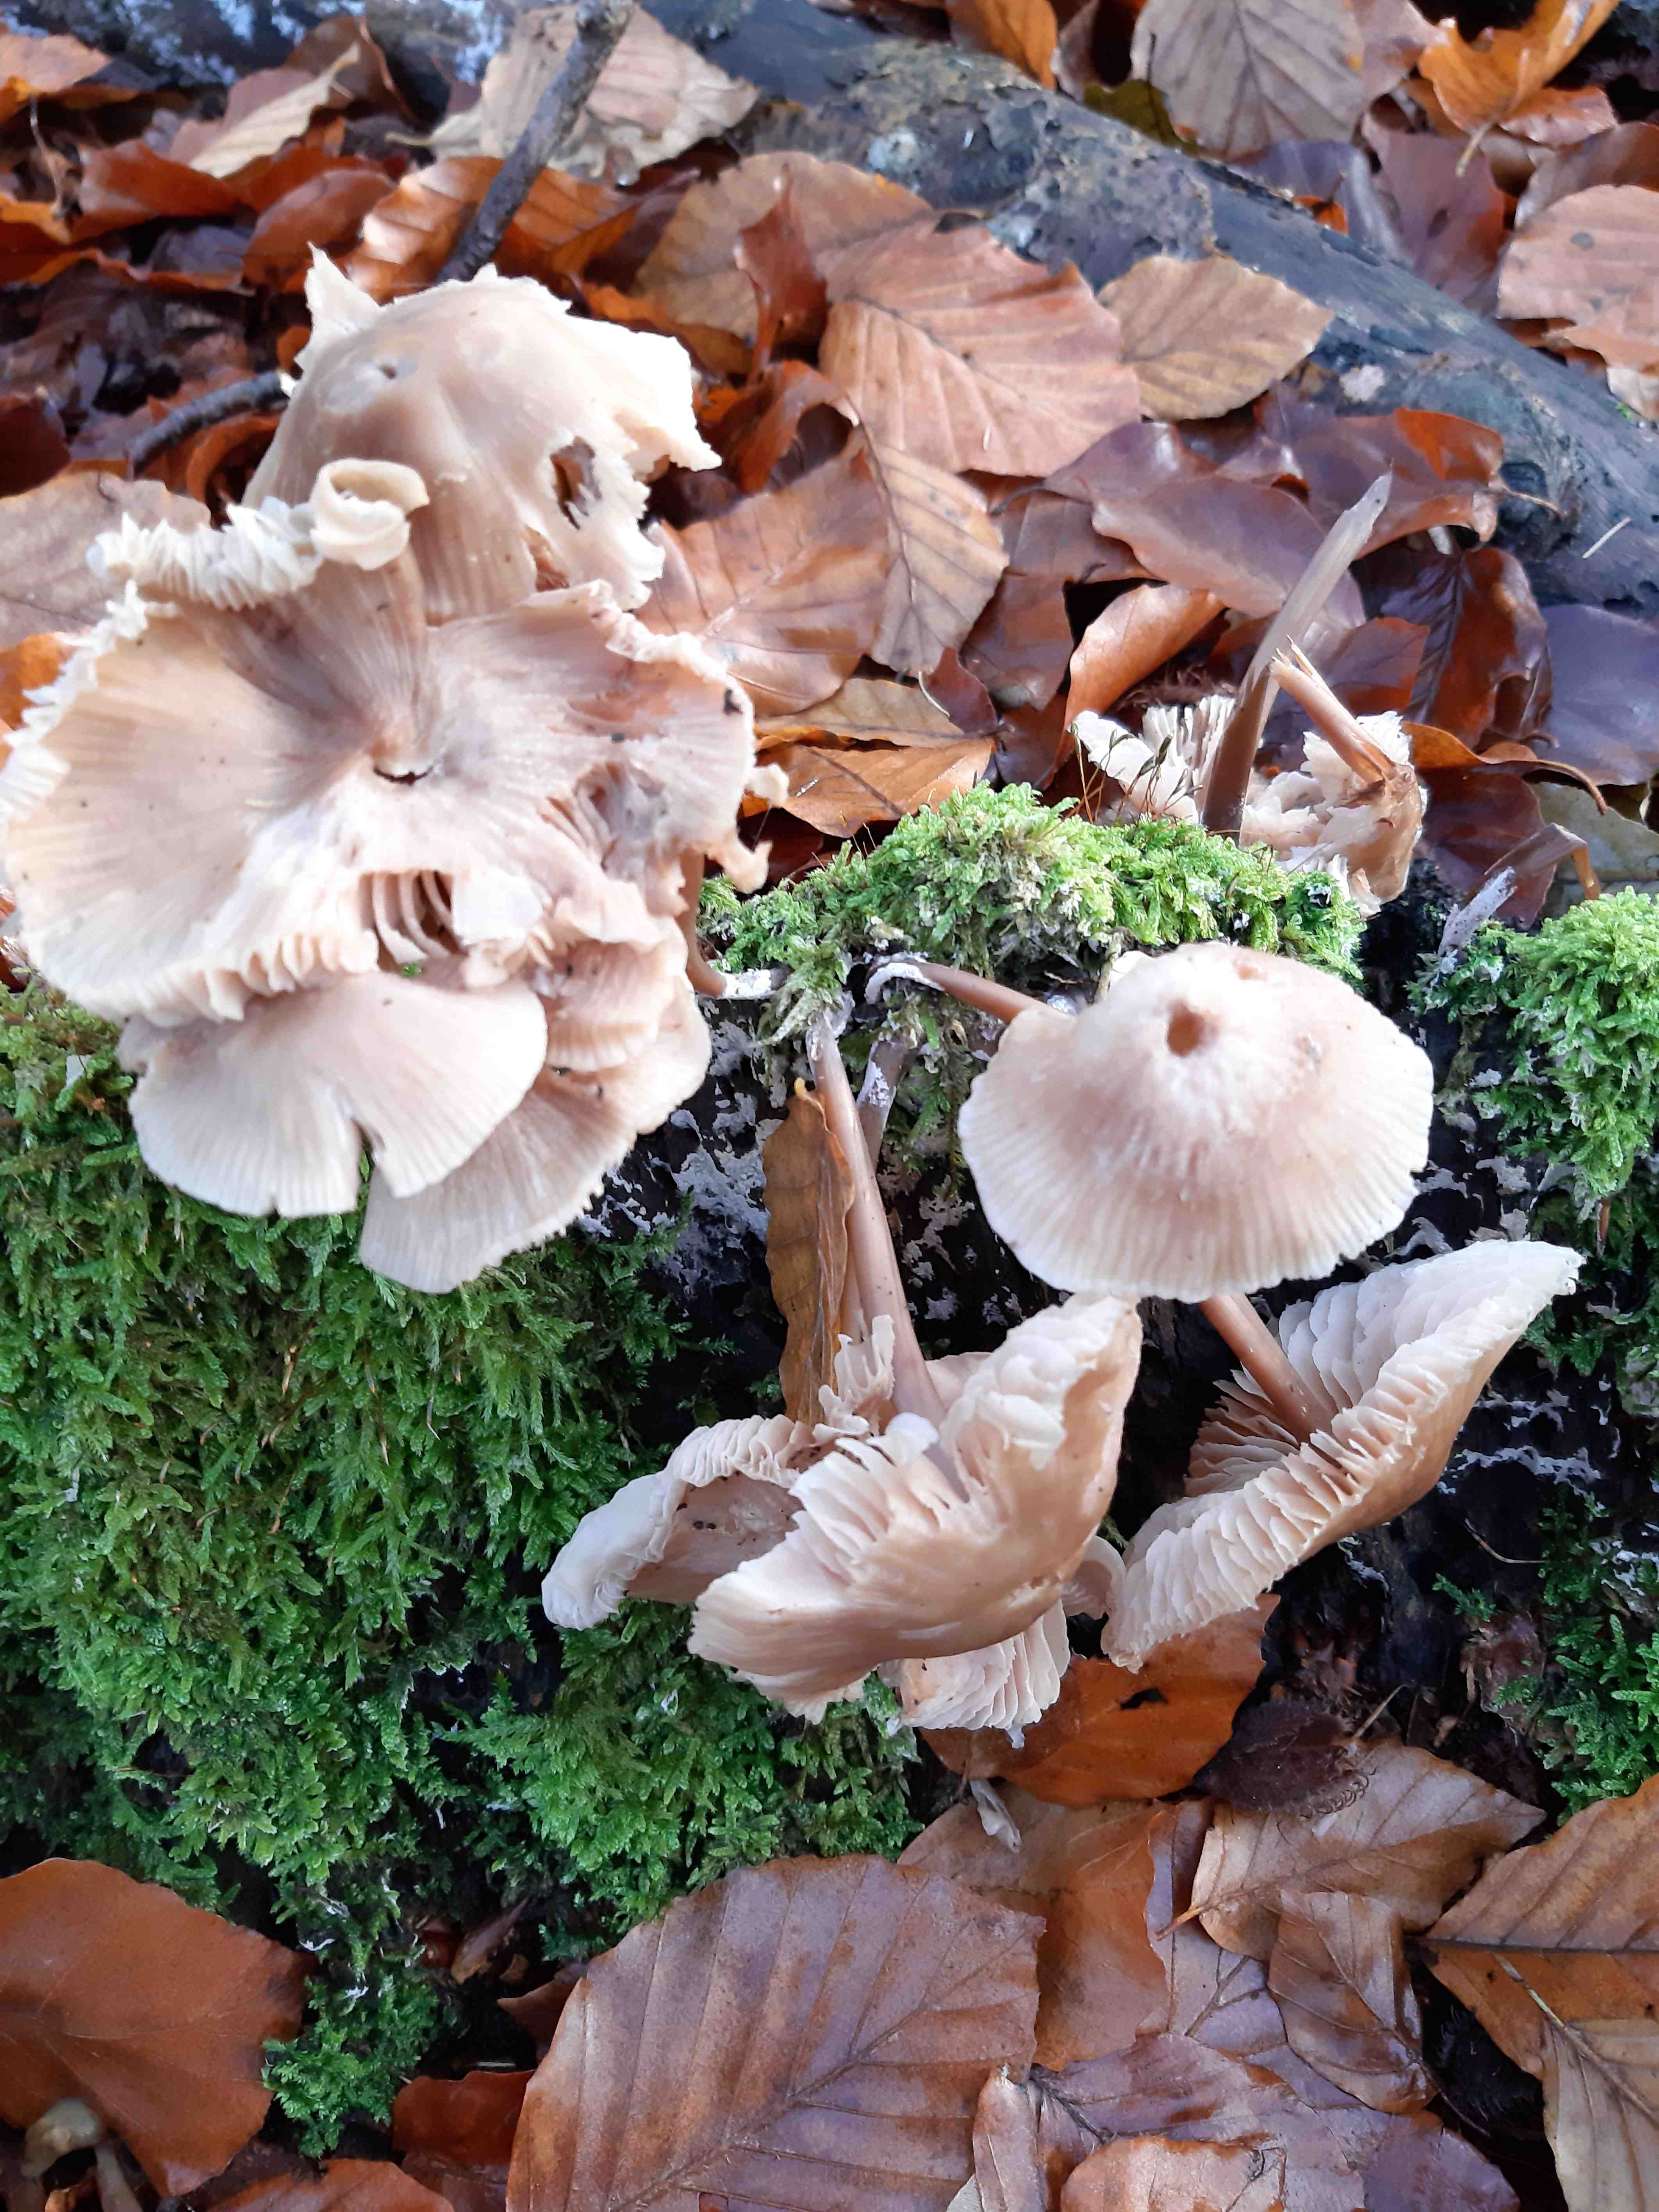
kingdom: Fungi
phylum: Basidiomycota
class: Agaricomycetes
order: Agaricales
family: Mycenaceae
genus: Mycena
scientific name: Mycena galericulata
